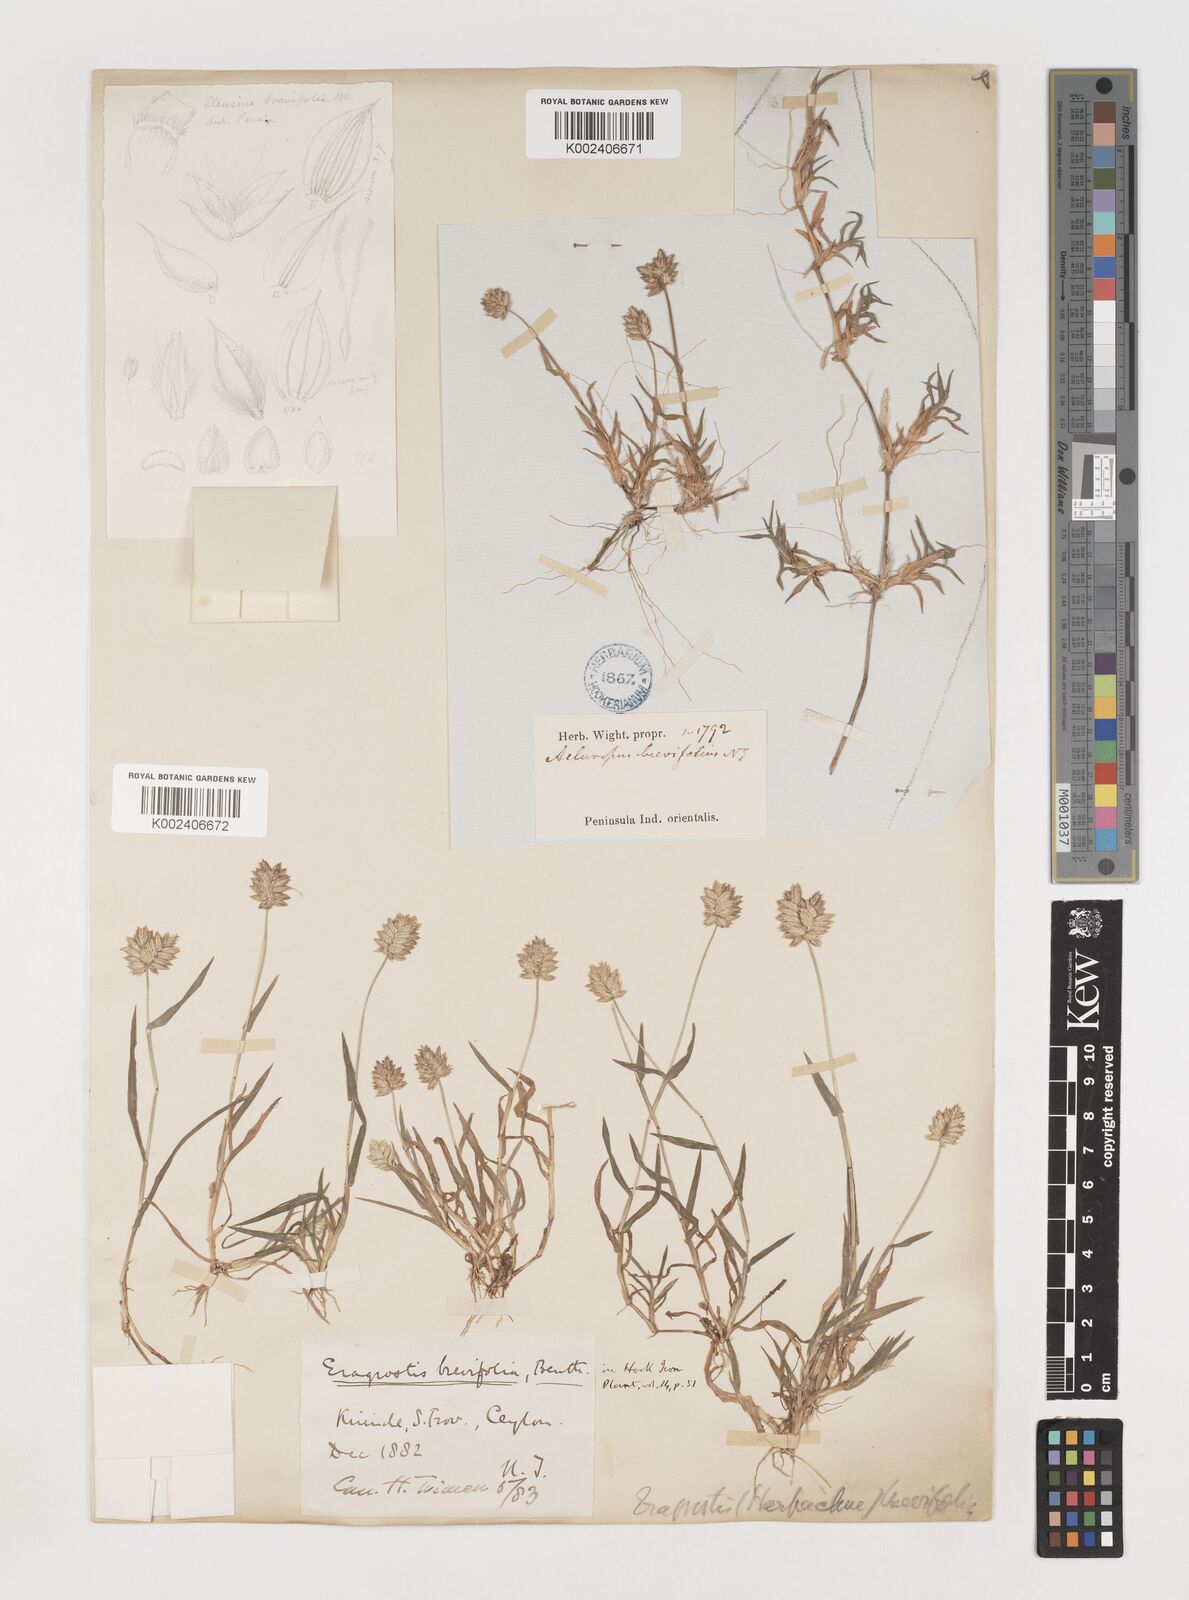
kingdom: Plantae
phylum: Tracheophyta
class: Liliopsida
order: Poales
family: Poaceae
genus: Coelachyrum
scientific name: Coelachyrum lagopoides
